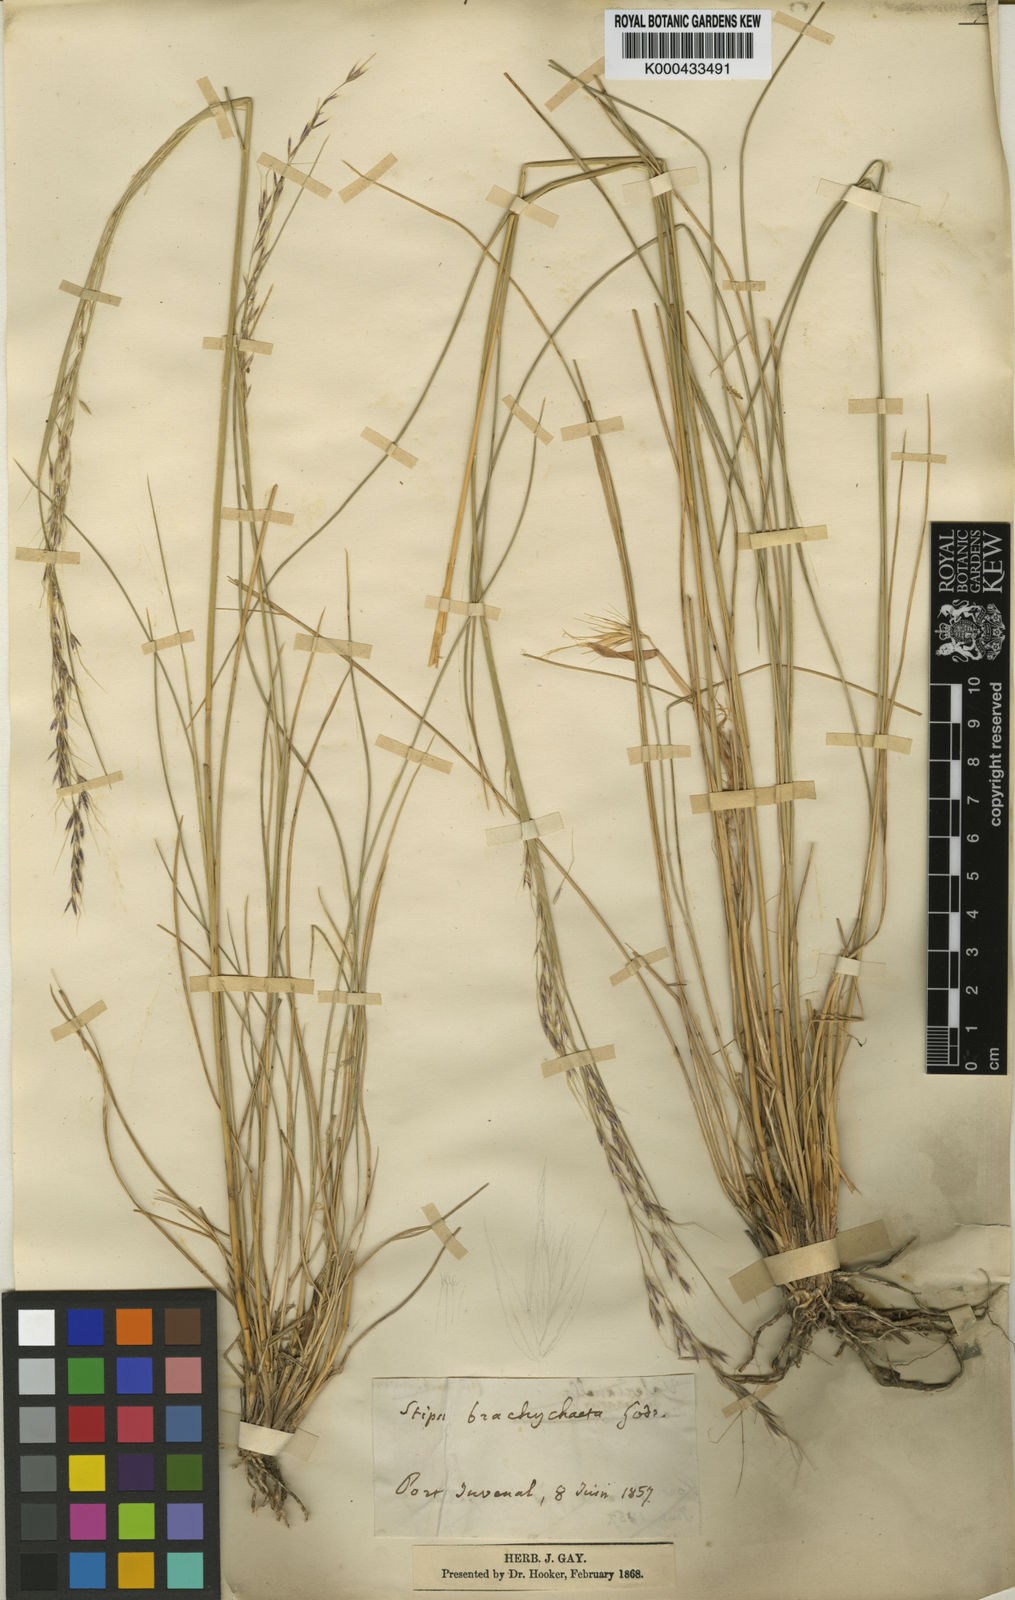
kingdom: Plantae
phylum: Tracheophyta
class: Liliopsida
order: Poales
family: Poaceae
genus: Amelichloa
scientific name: Amelichloa brachychaeta
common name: Shortbristled needlegrass
